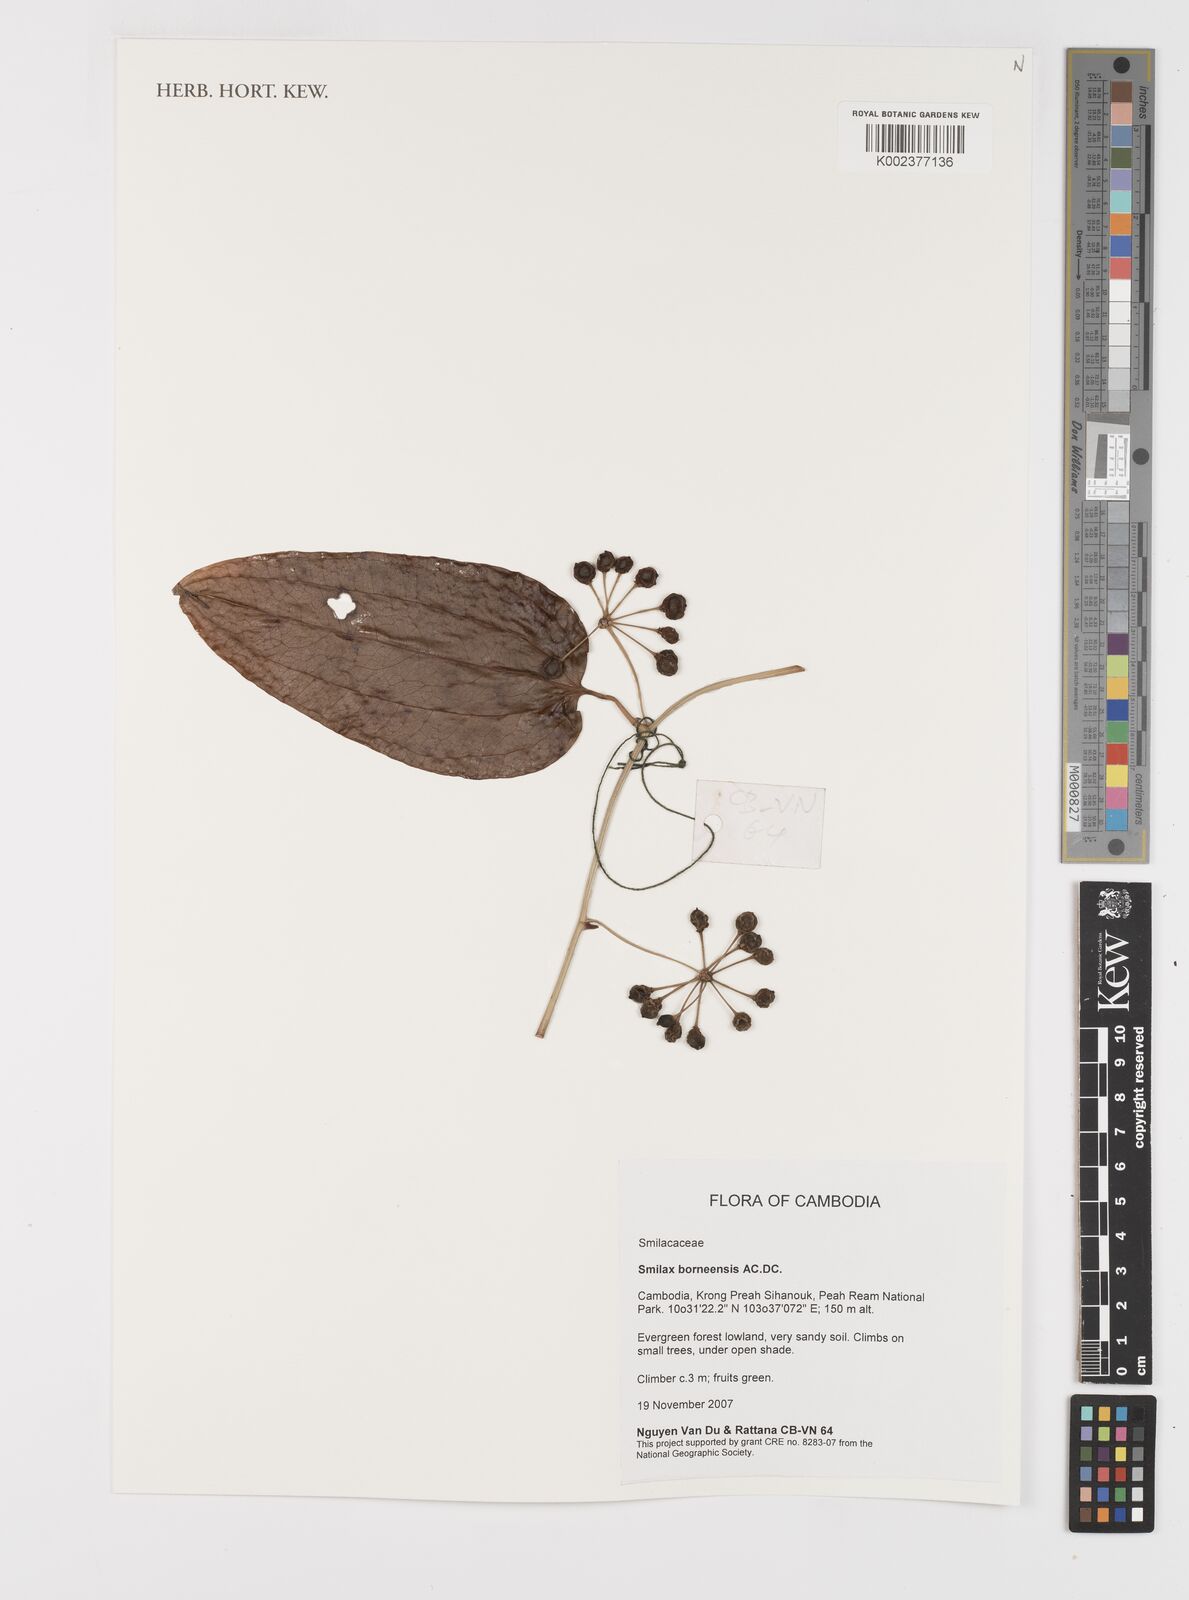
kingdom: Plantae
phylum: Tracheophyta
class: Liliopsida
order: Liliales
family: Smilacaceae
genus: Smilax
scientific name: Smilax borneensis
